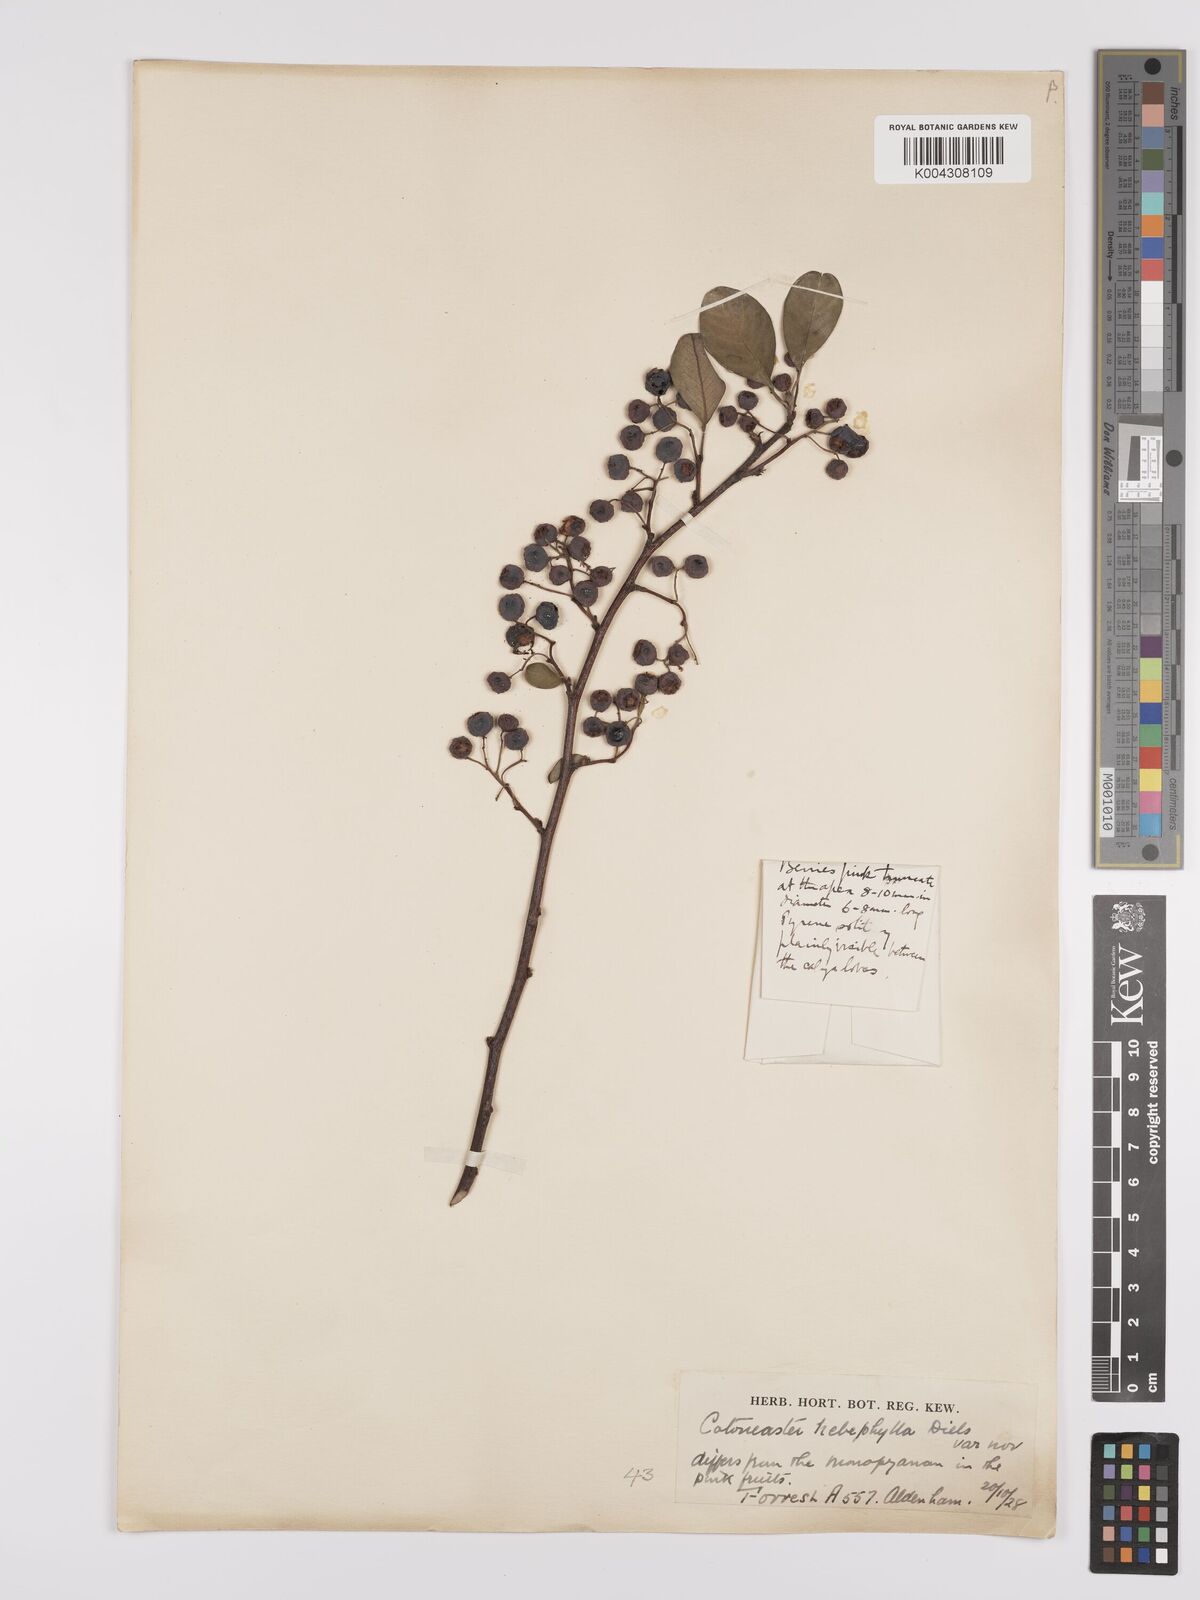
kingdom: Plantae
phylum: Tracheophyta
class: Magnoliopsida
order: Rosales
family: Rosaceae
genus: Cotoneaster
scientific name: Cotoneaster hebephyllus
